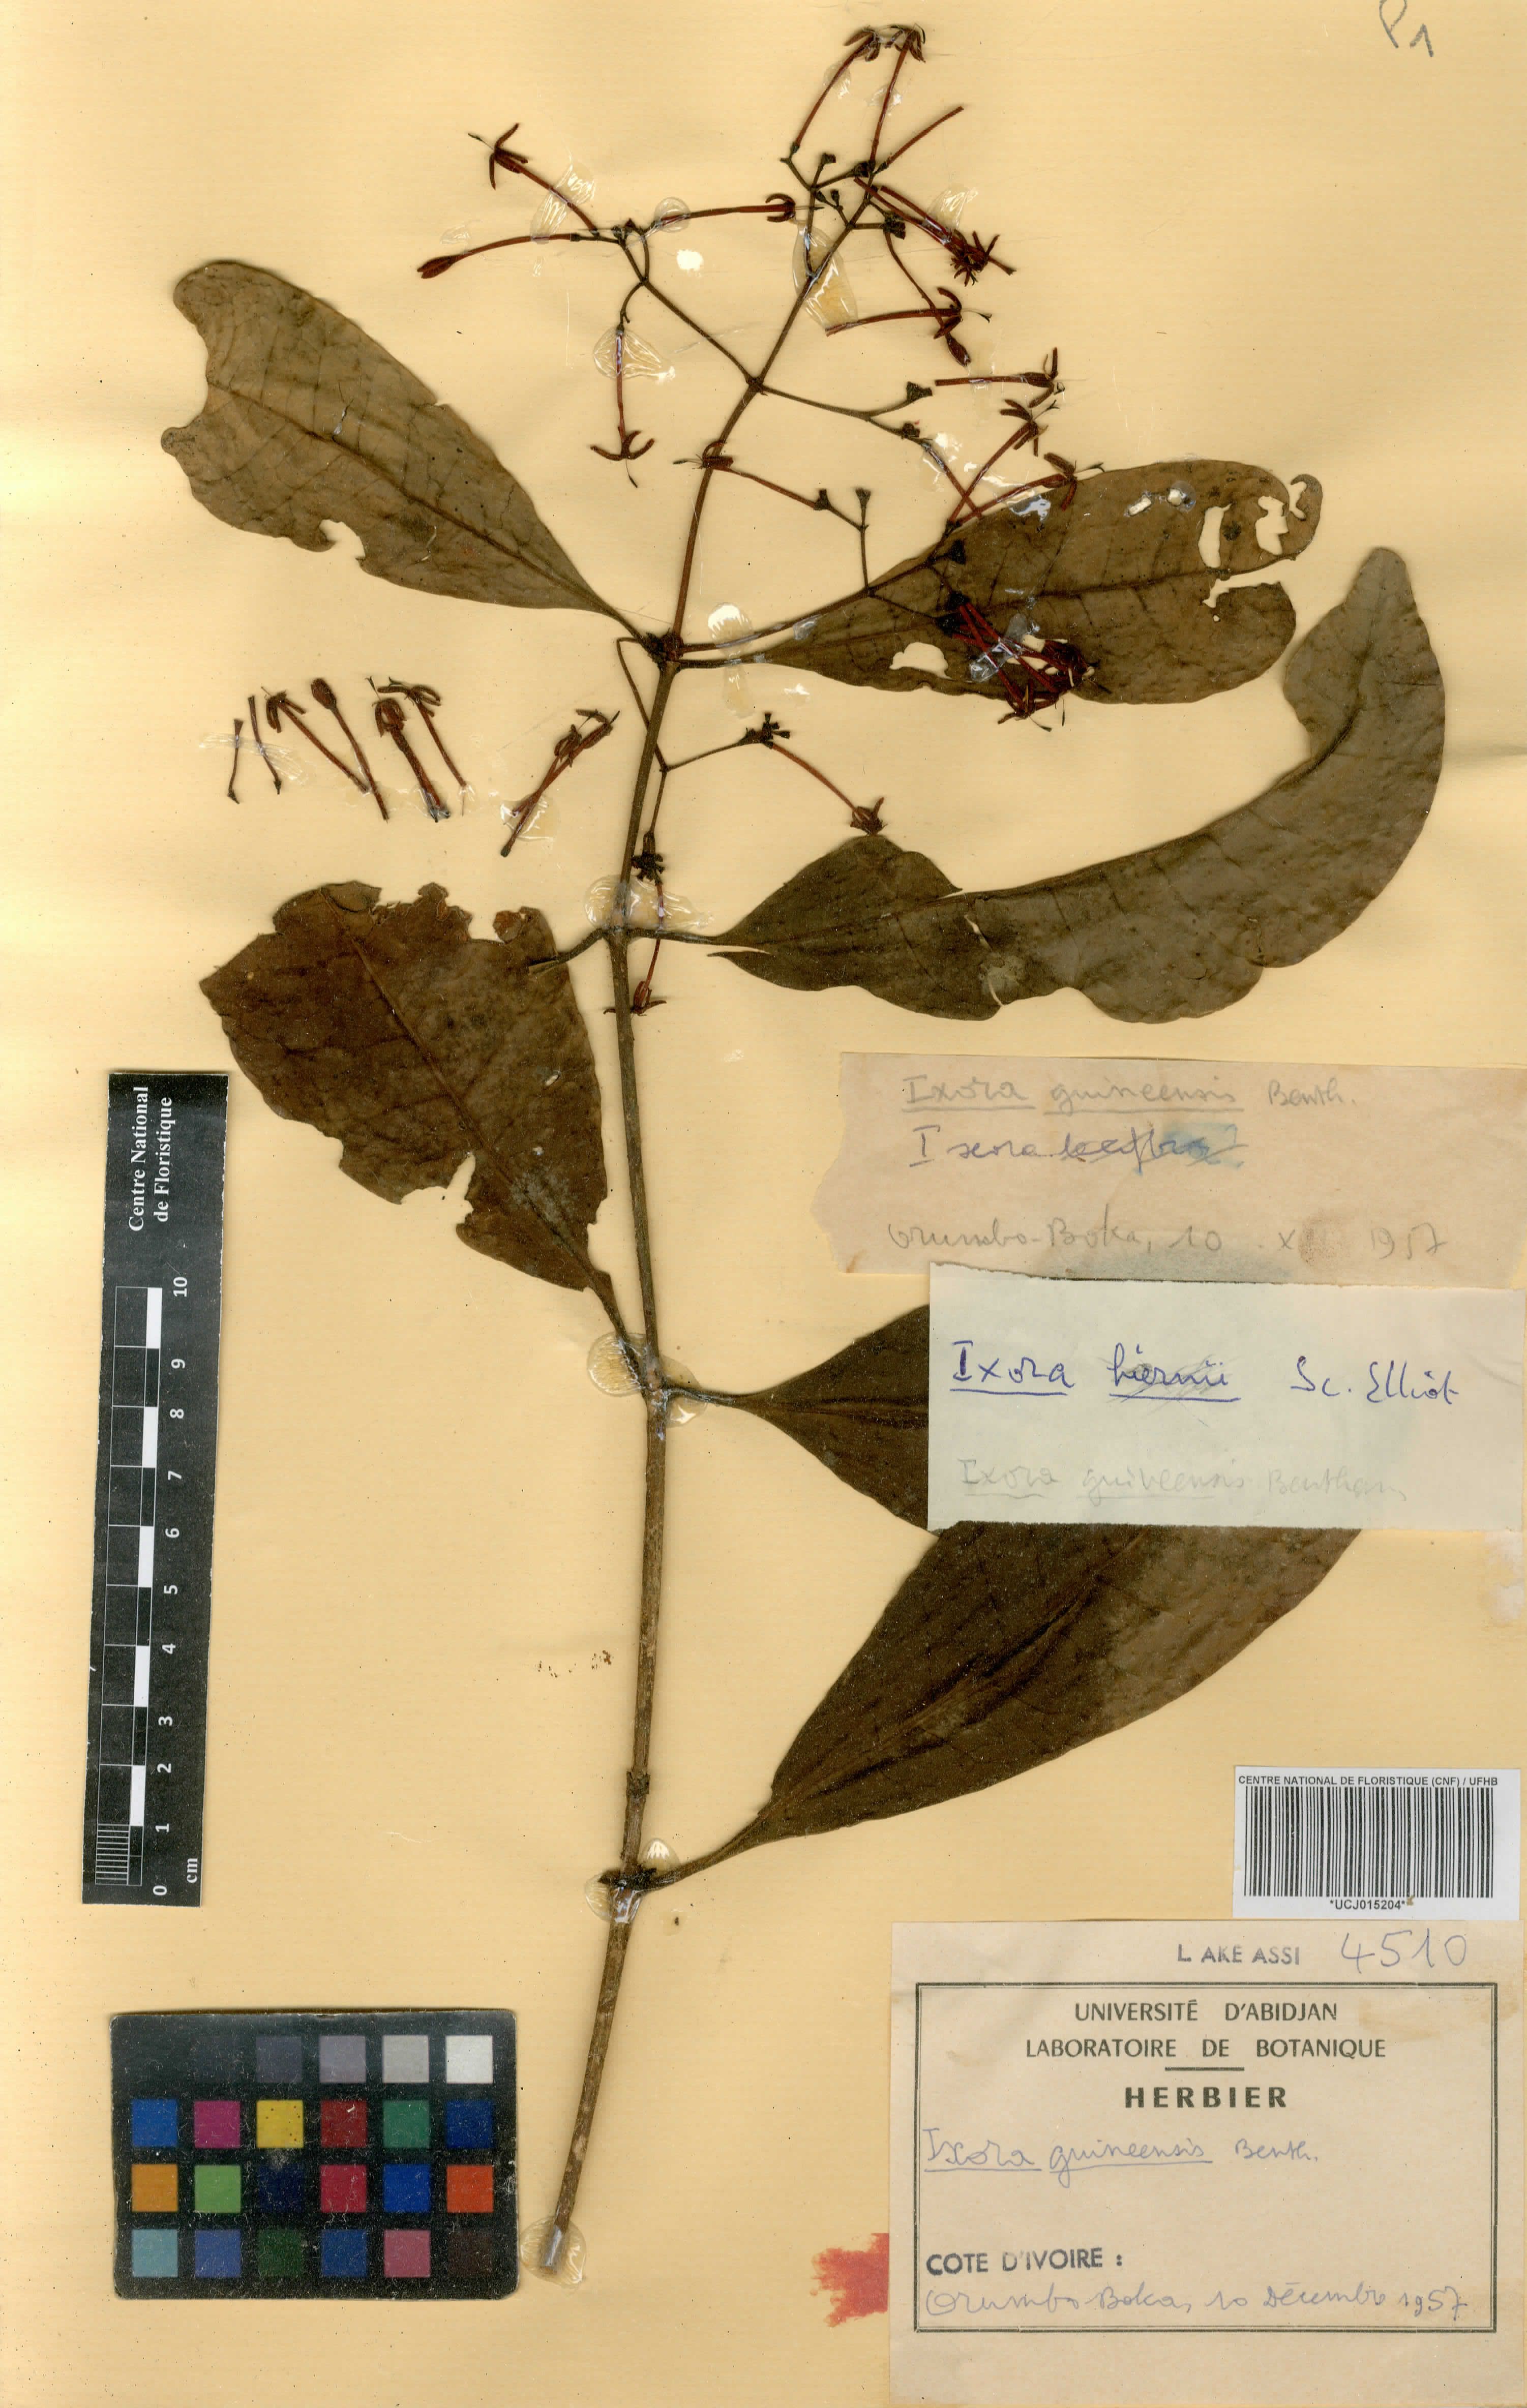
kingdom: Plantae
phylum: Tracheophyta
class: Magnoliopsida
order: Gentianales
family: Rubiaceae
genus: Ixora
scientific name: Ixora guineensis
